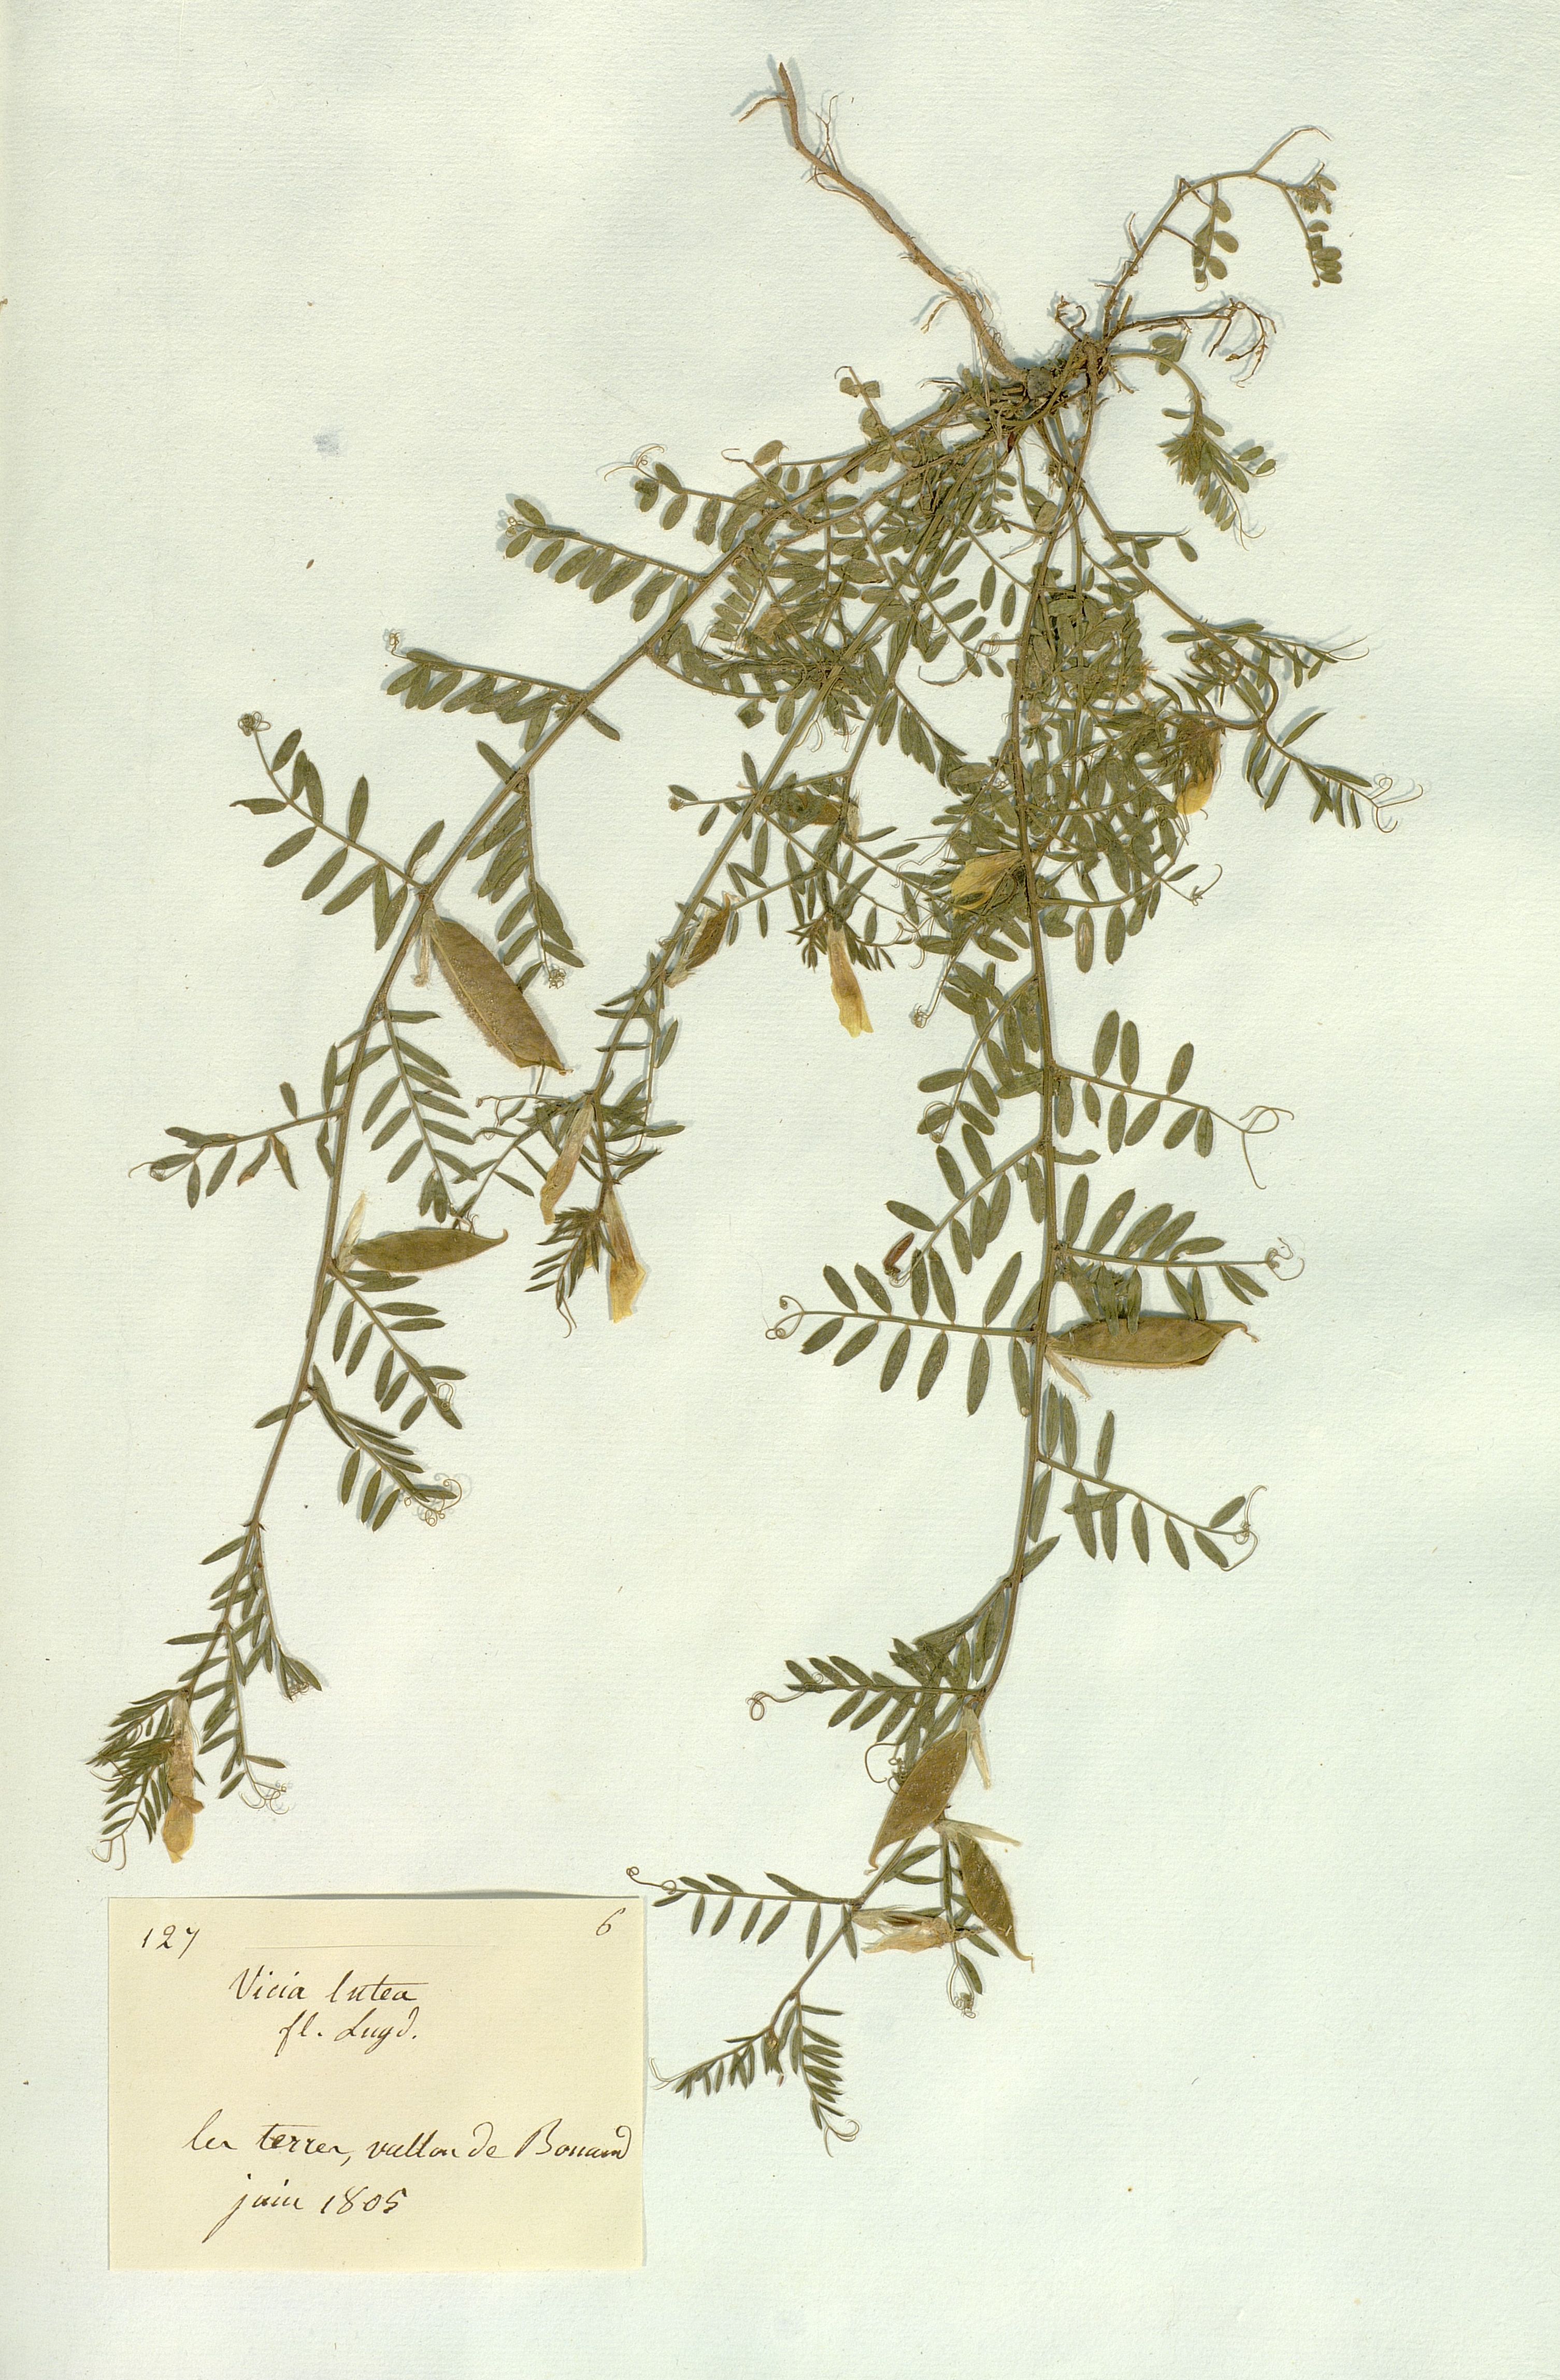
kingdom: Plantae
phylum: Tracheophyta
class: Magnoliopsida
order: Fabales
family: Fabaceae
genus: Vicia
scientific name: Vicia lutea
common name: Smooth yellow vetch
